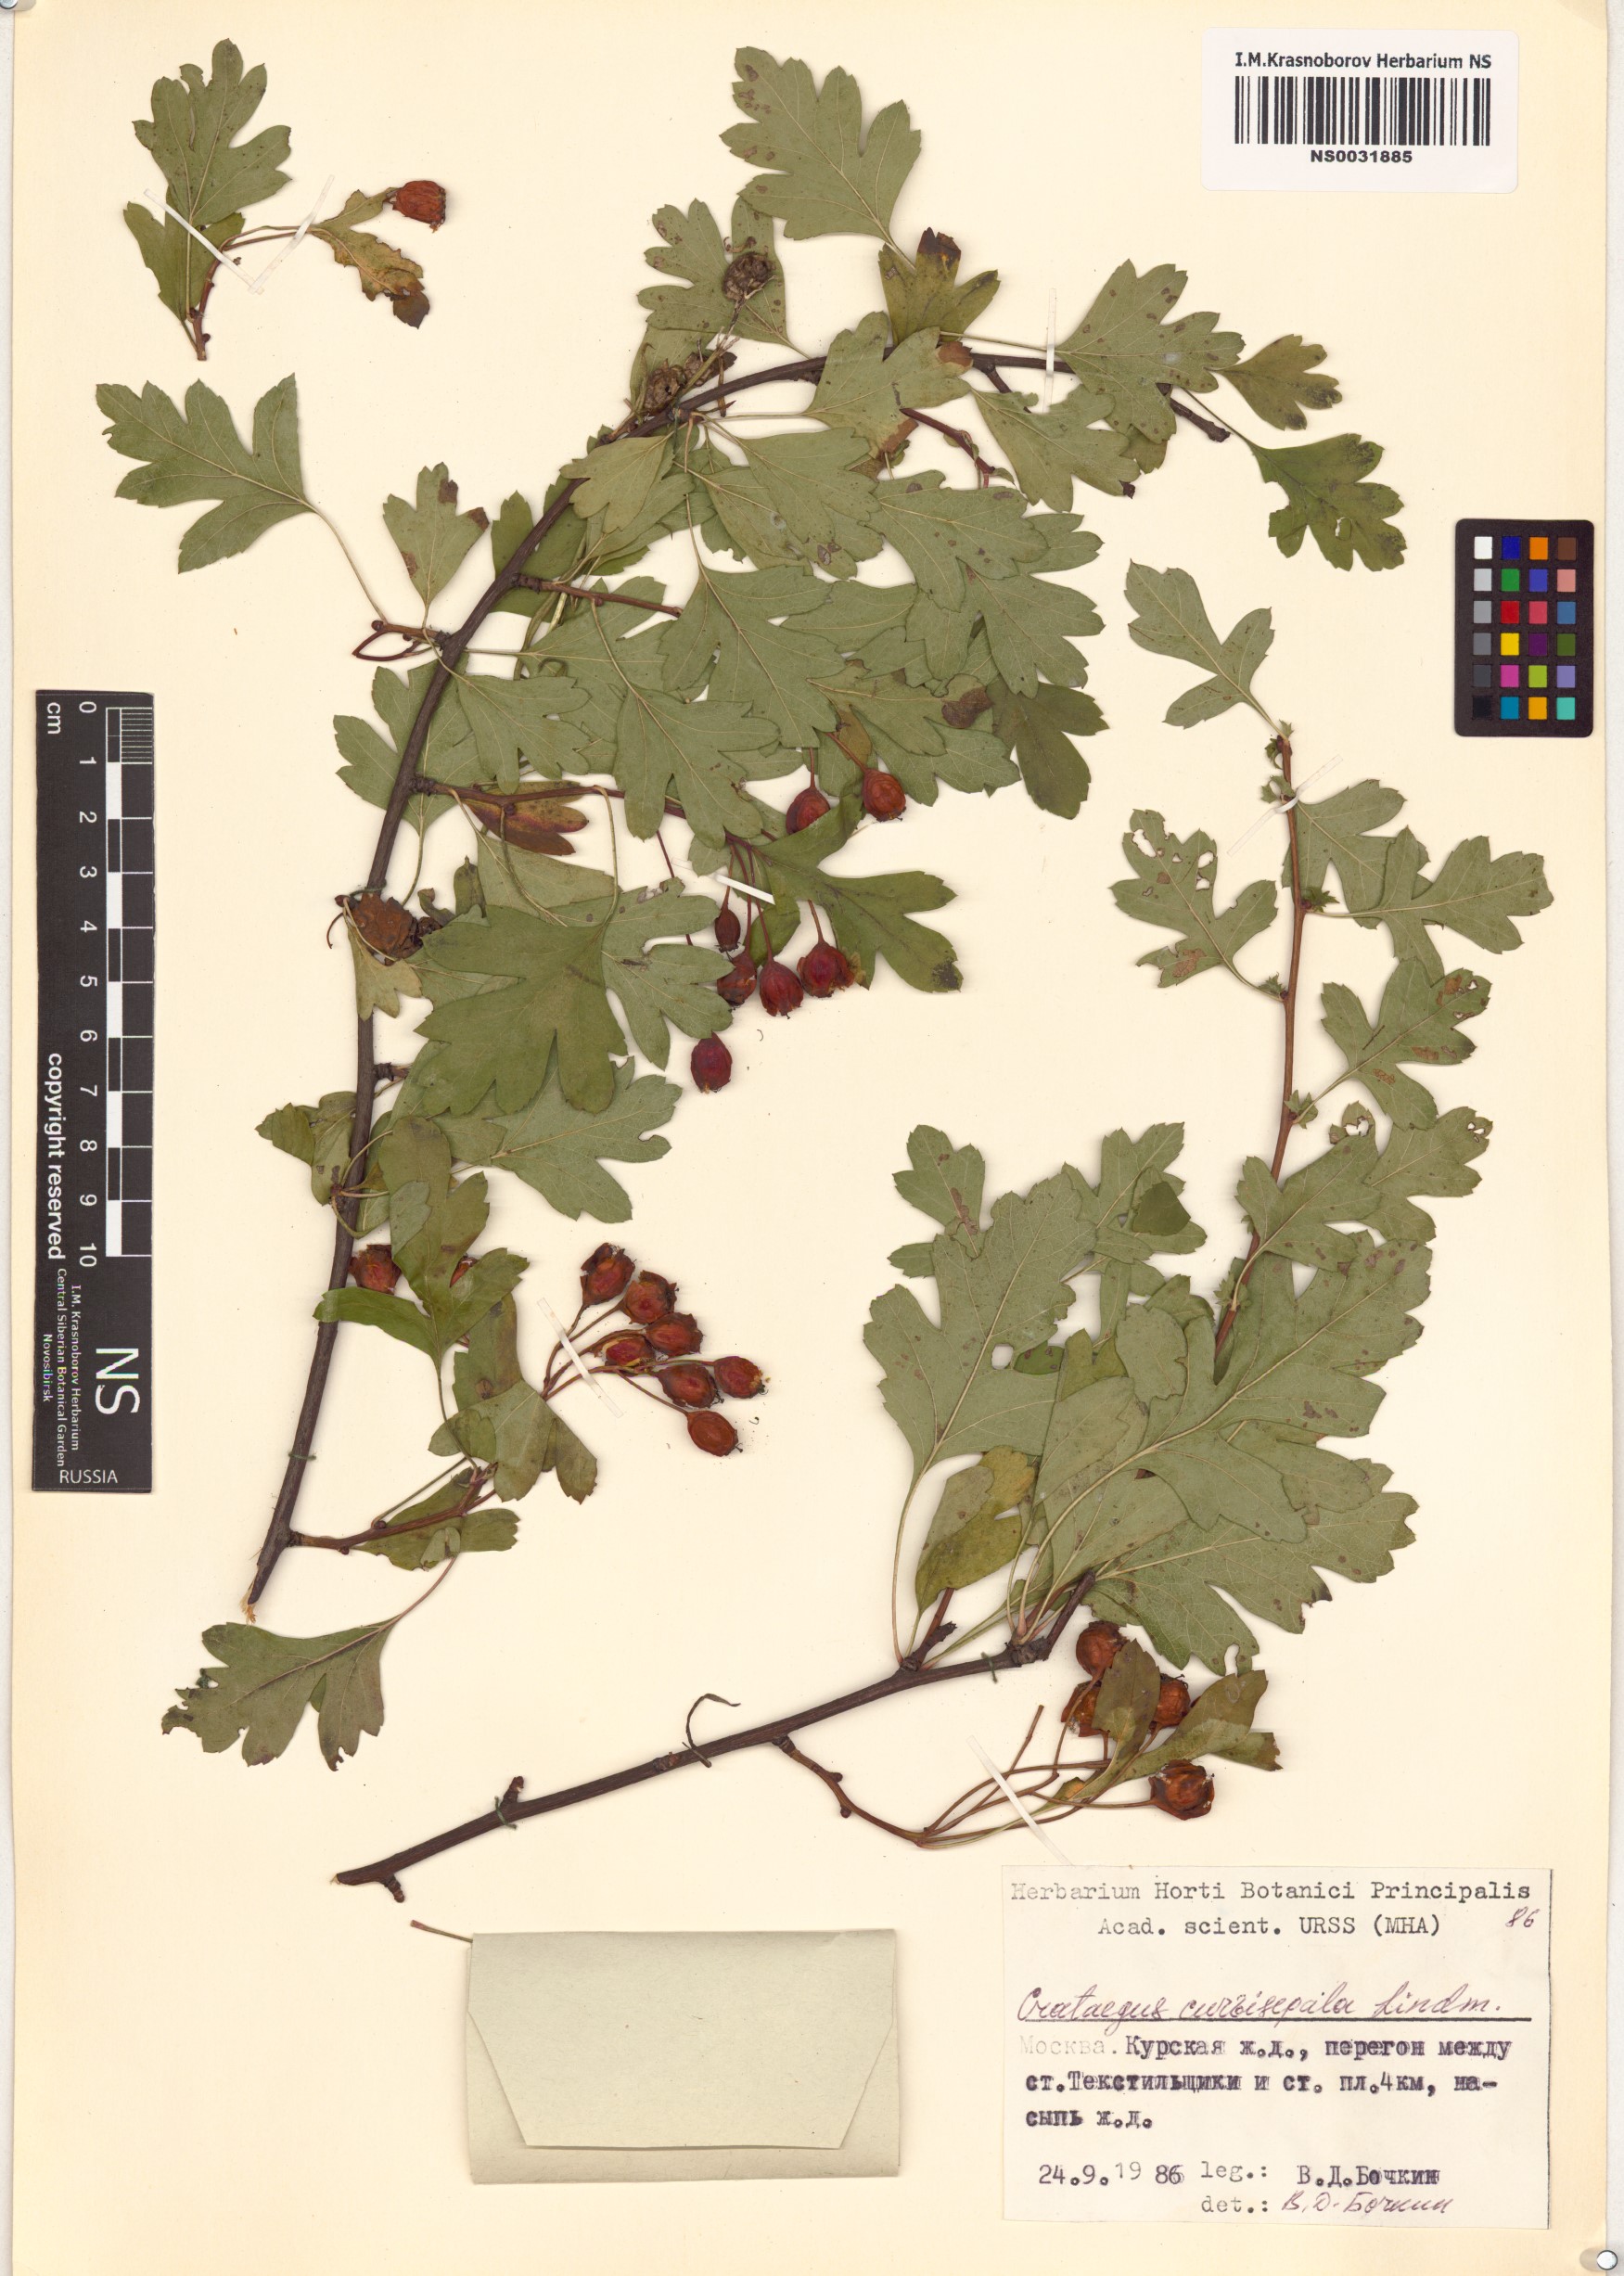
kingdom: Plantae
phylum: Tracheophyta
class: Magnoliopsida
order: Rosales
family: Rosaceae
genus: Crataegus
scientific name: Crataegus praemonticola
